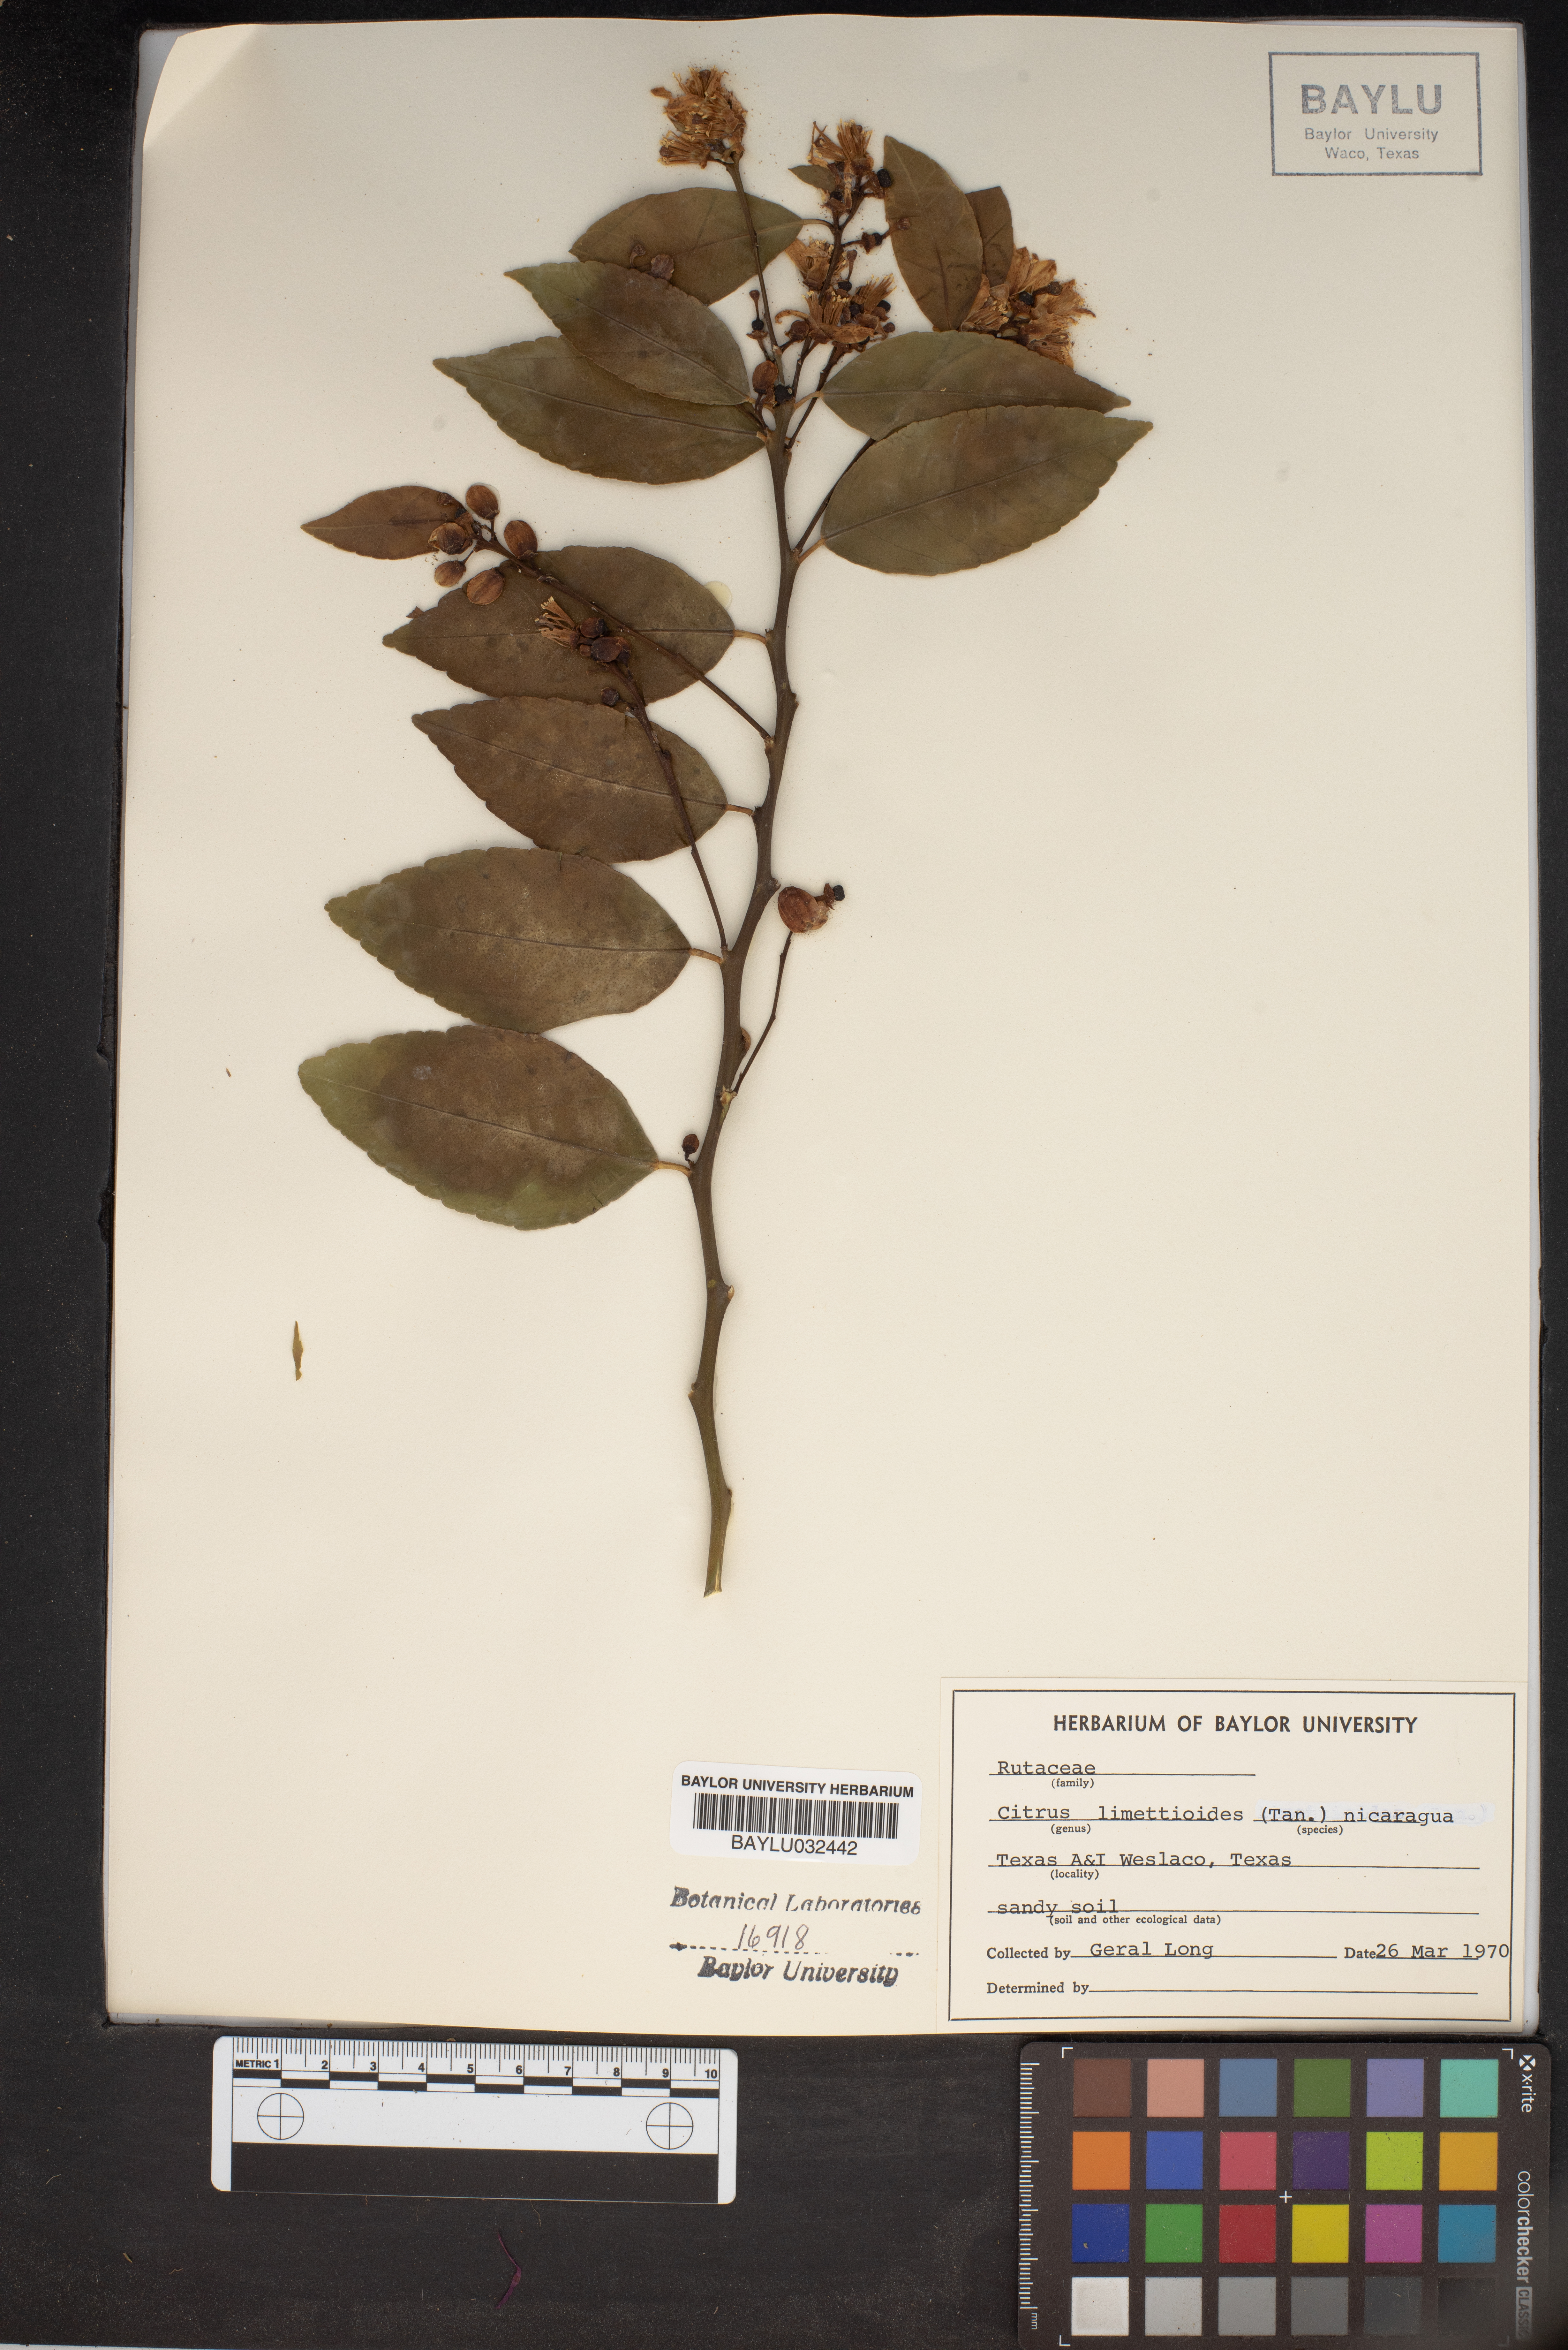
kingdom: Plantae
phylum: Tracheophyta
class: Magnoliopsida
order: Sapindales
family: Rutaceae
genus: Citrus
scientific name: Citrus limon
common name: Lemon
